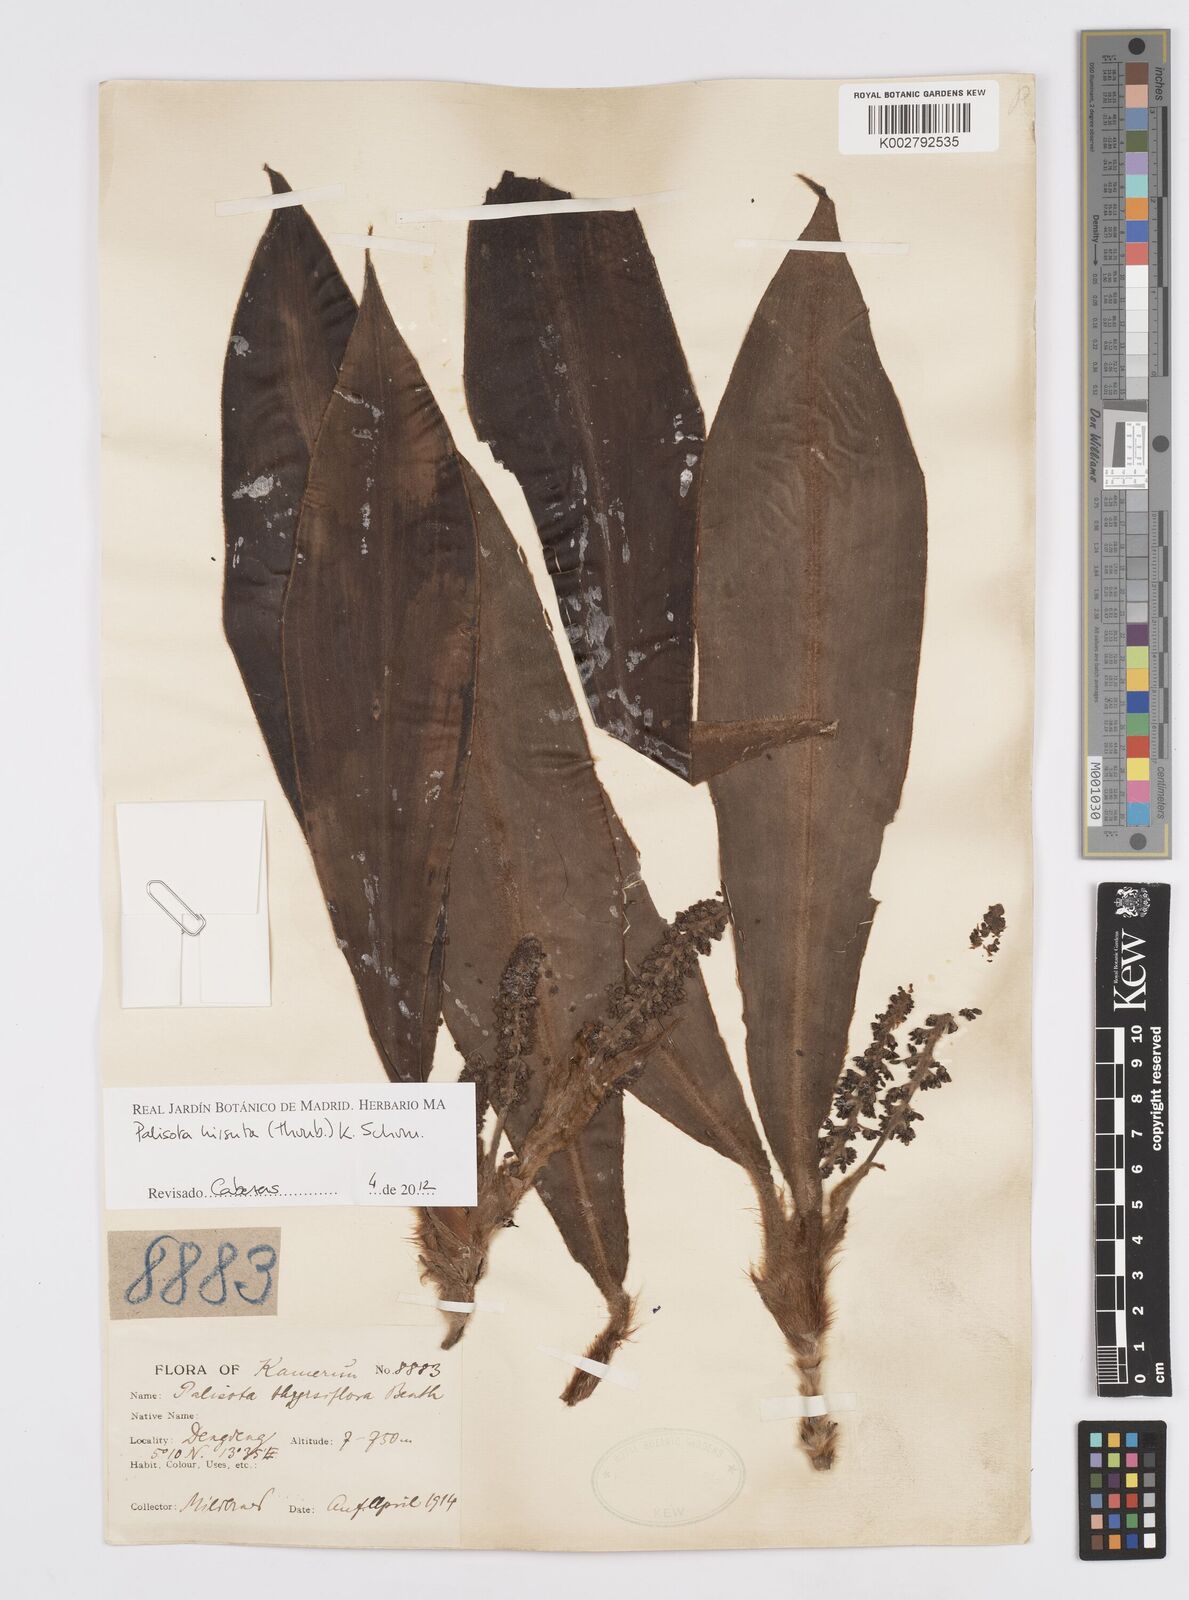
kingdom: Plantae
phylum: Tracheophyta
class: Liliopsida
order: Commelinales
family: Commelinaceae
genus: Palisota
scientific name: Palisota hirsuta
